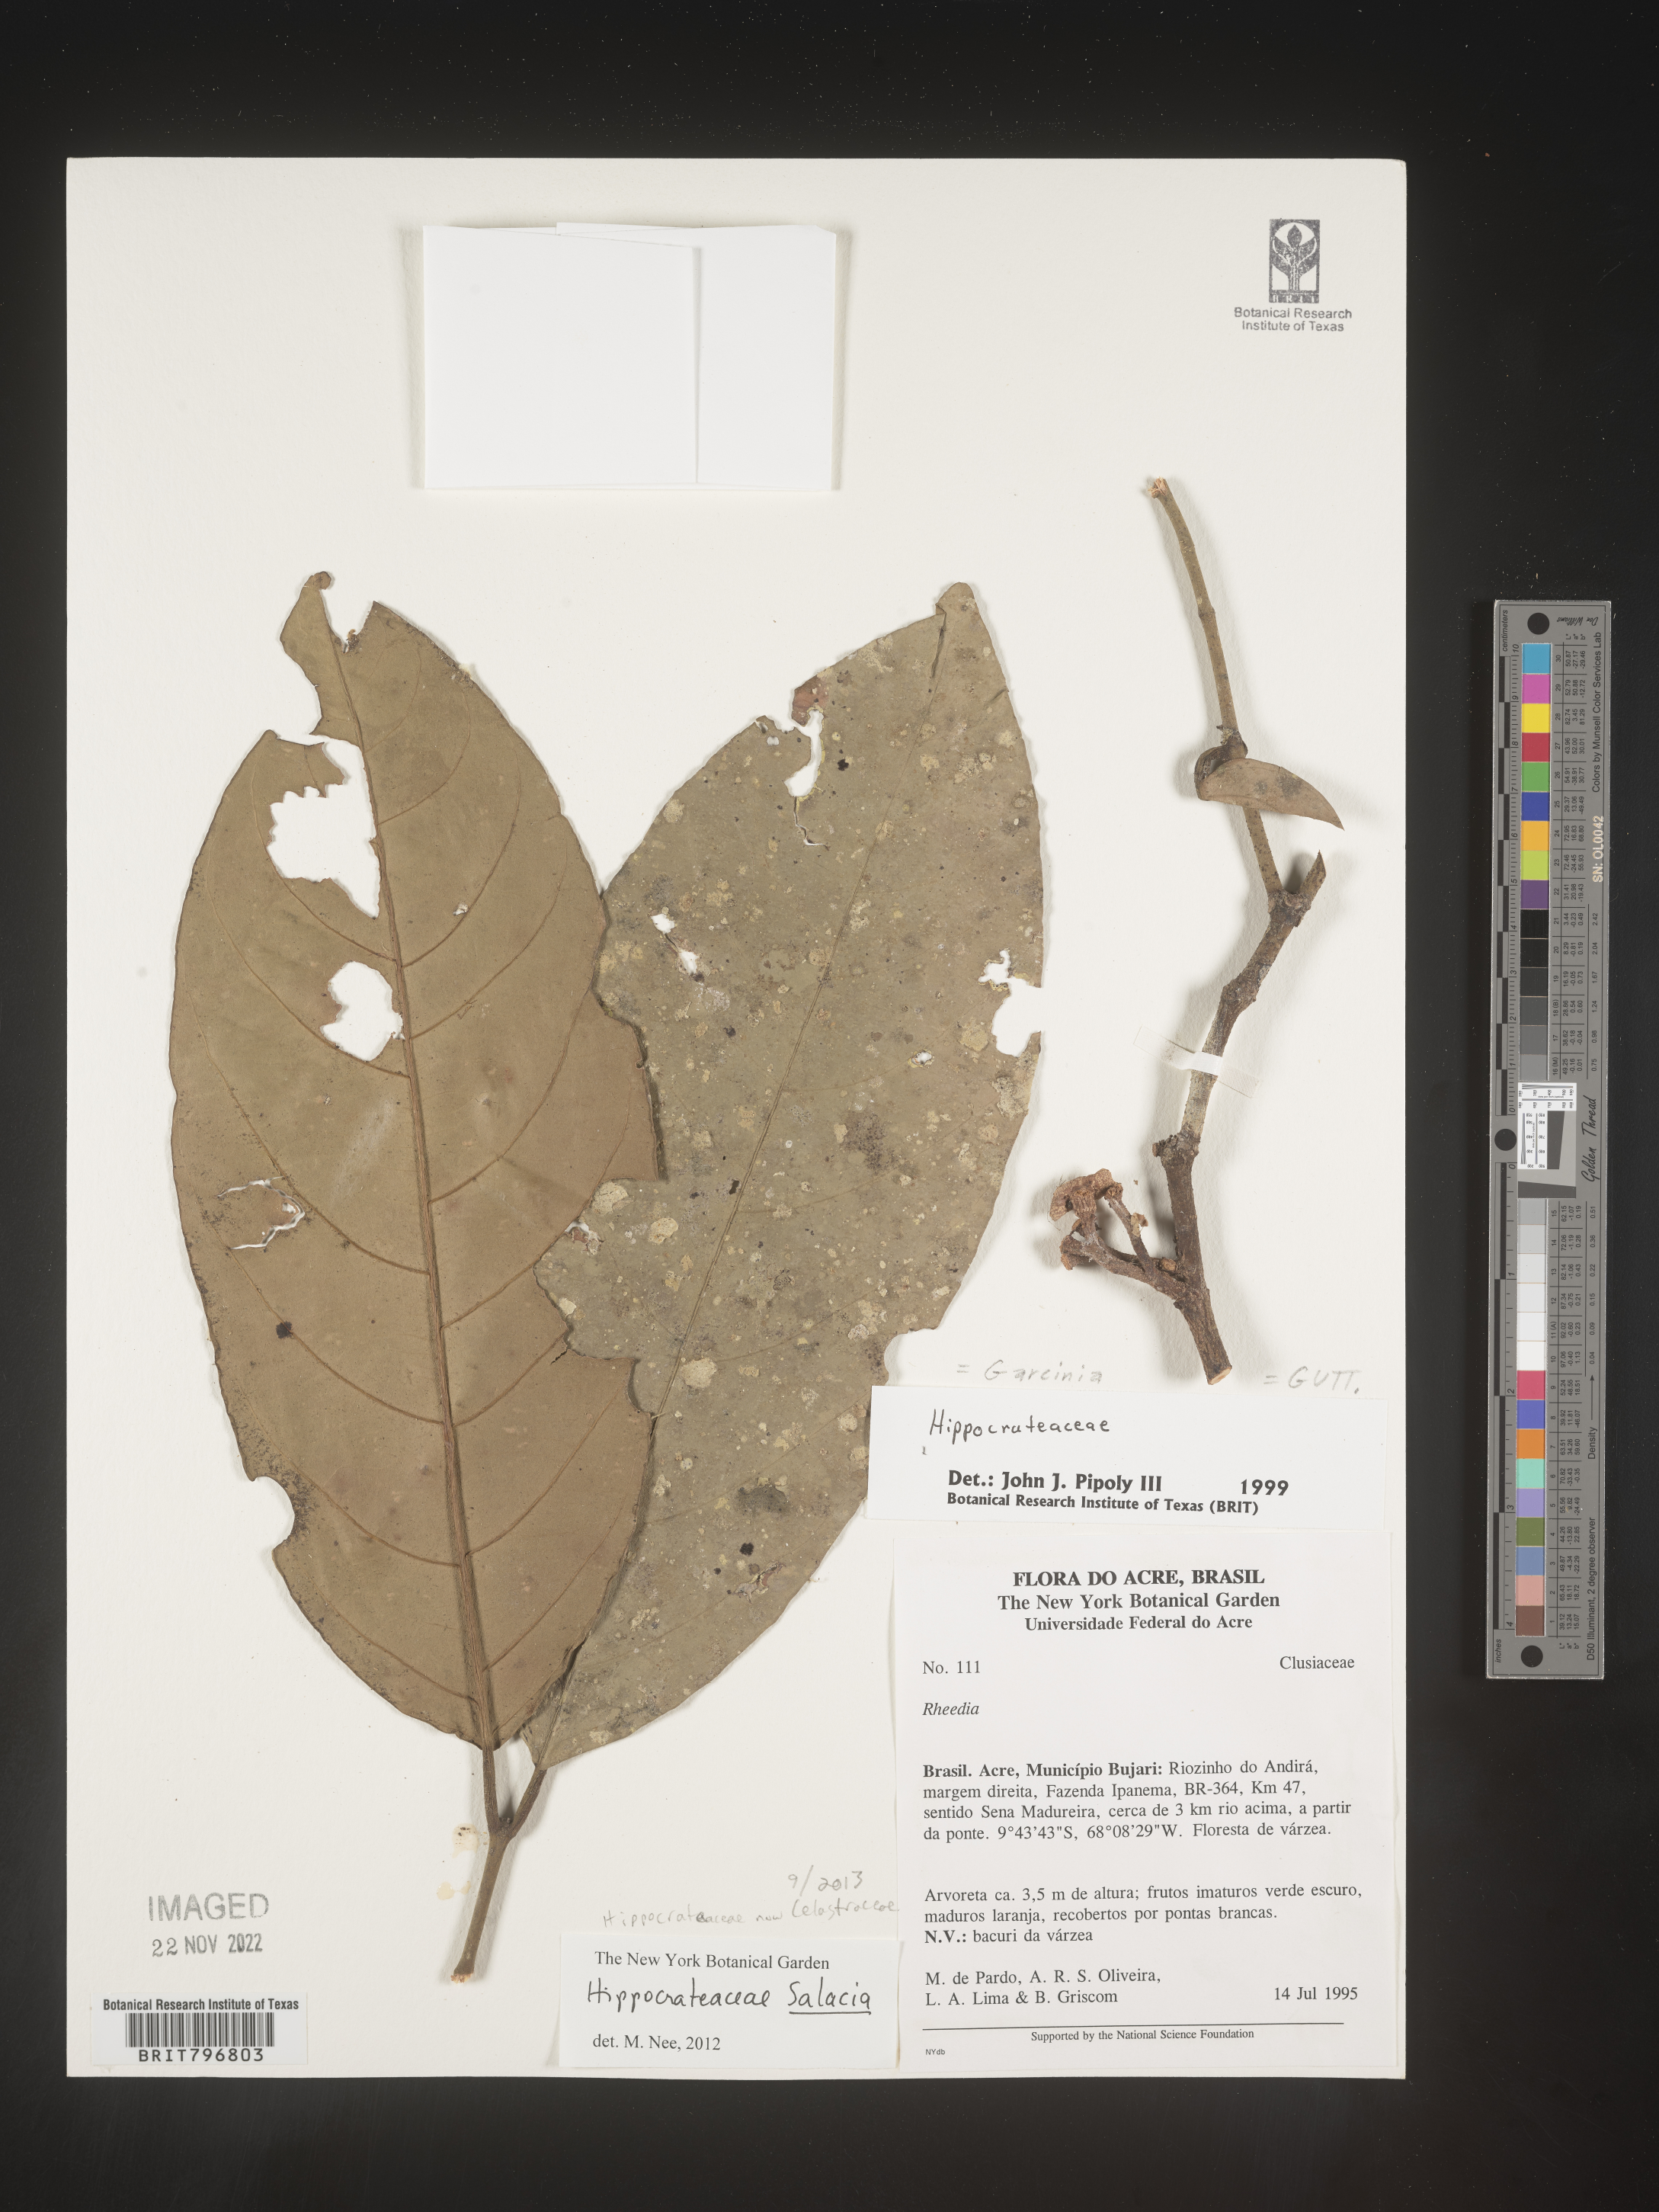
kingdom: Plantae
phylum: Tracheophyta
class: Magnoliopsida
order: Celastrales
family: Celastraceae
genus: Salacia
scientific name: Salacia
